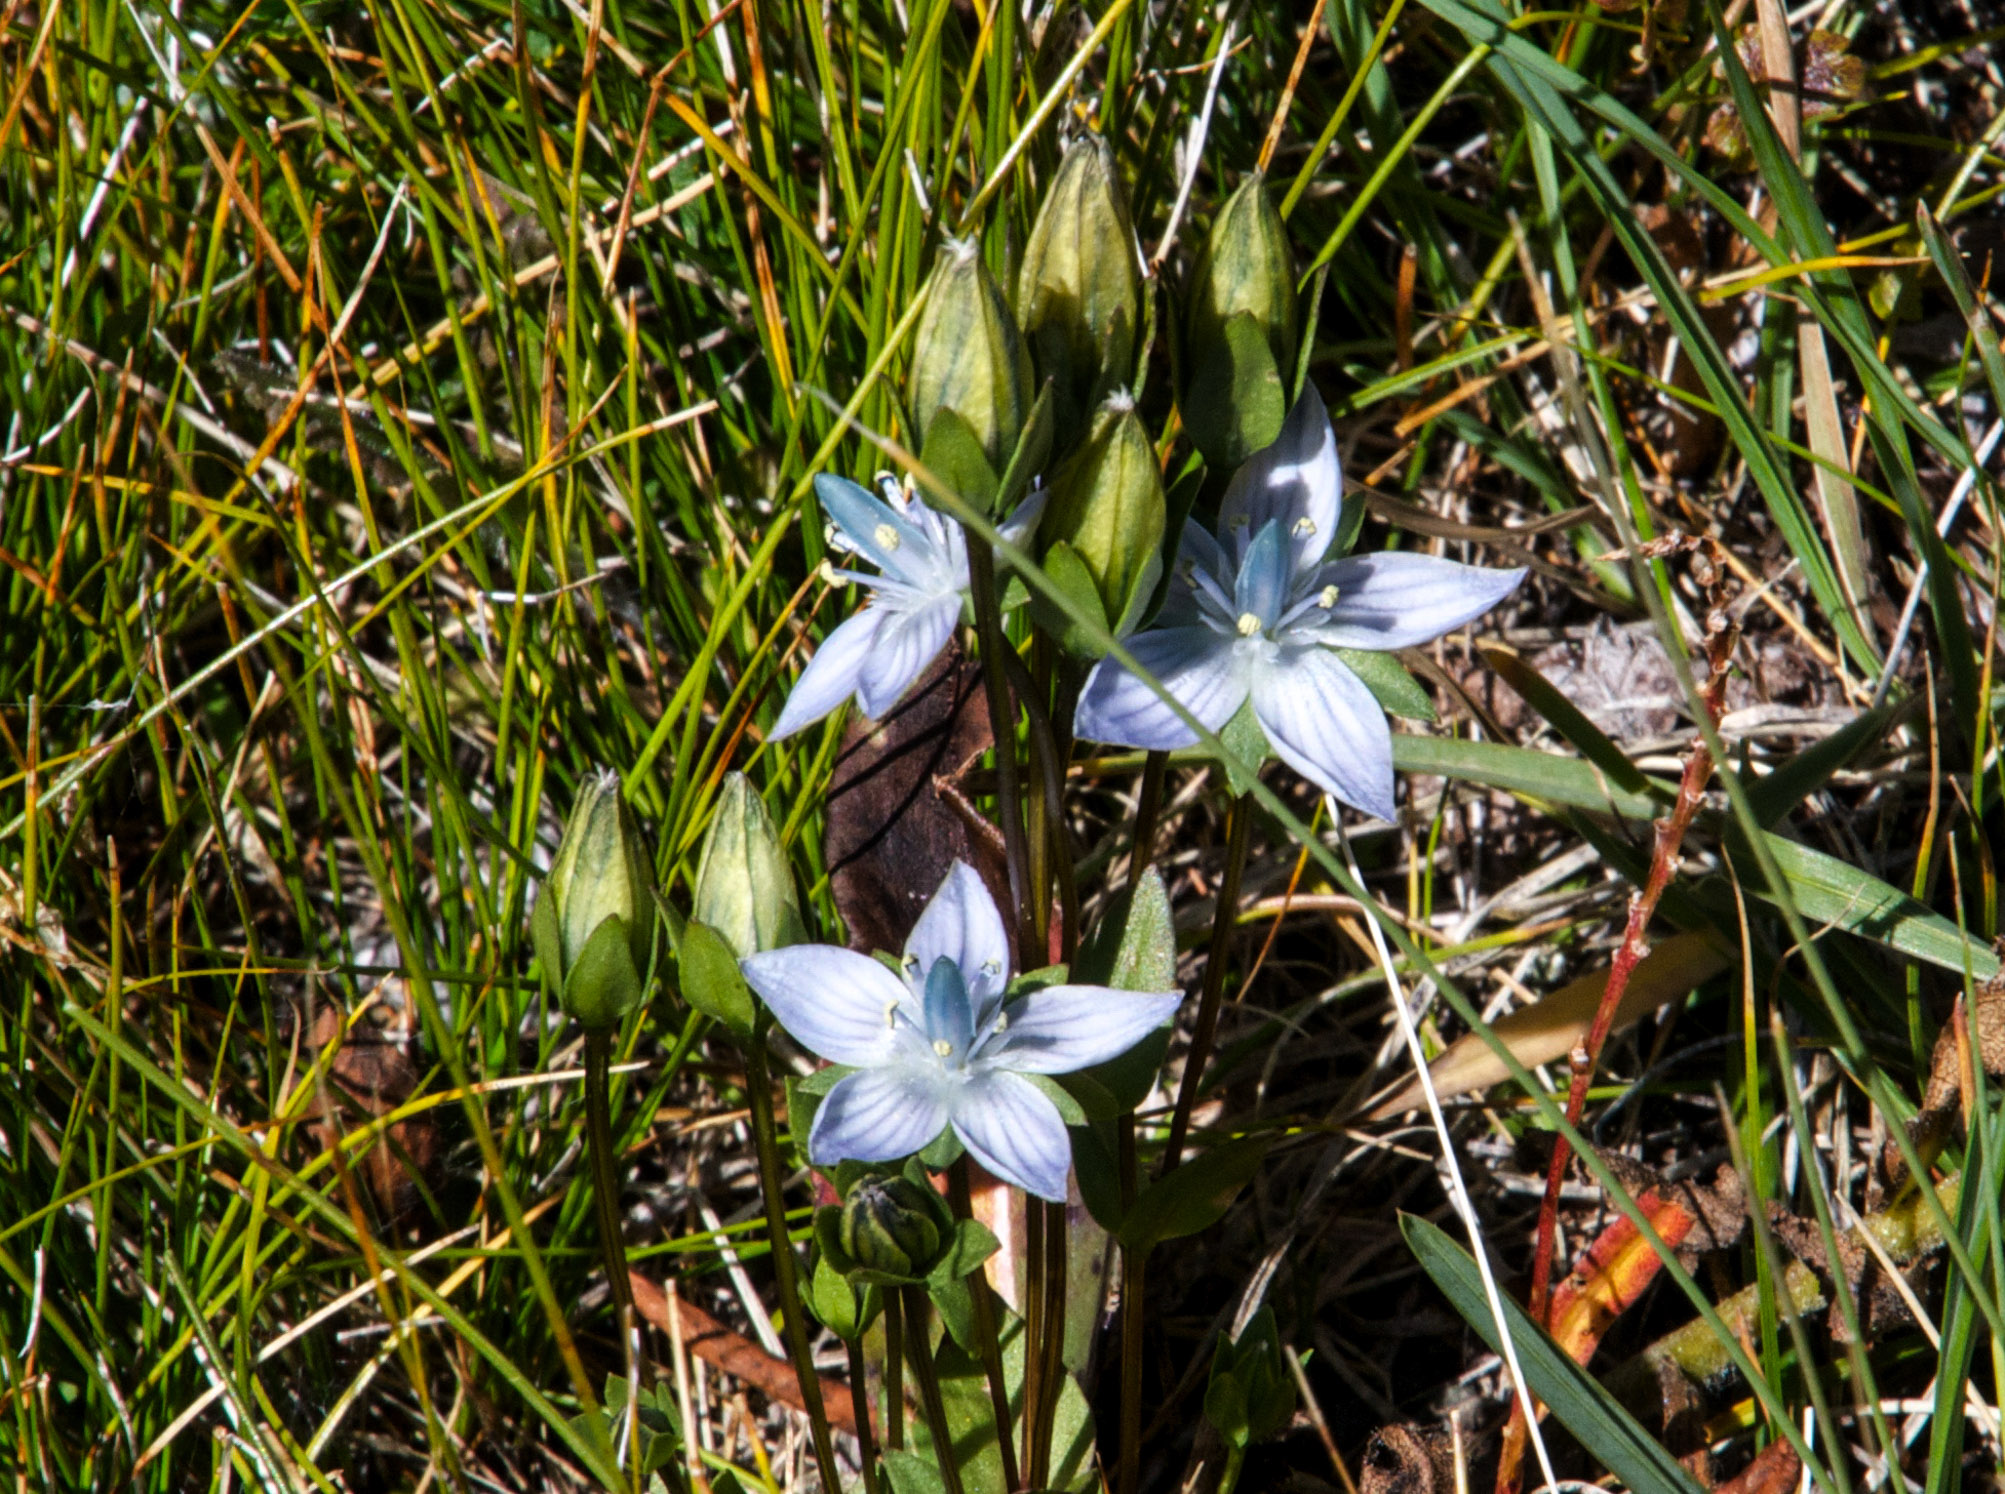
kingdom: Plantae
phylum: Tracheophyta
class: Magnoliopsida
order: Gentianales
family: Gentianaceae
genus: Swertia
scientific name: Swertia obtusa
